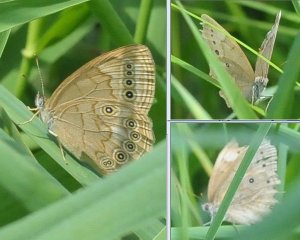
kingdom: Animalia
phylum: Arthropoda
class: Insecta
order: Lepidoptera
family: Nymphalidae
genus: Lethe
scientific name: Lethe eurydice
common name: Eyed Brown
